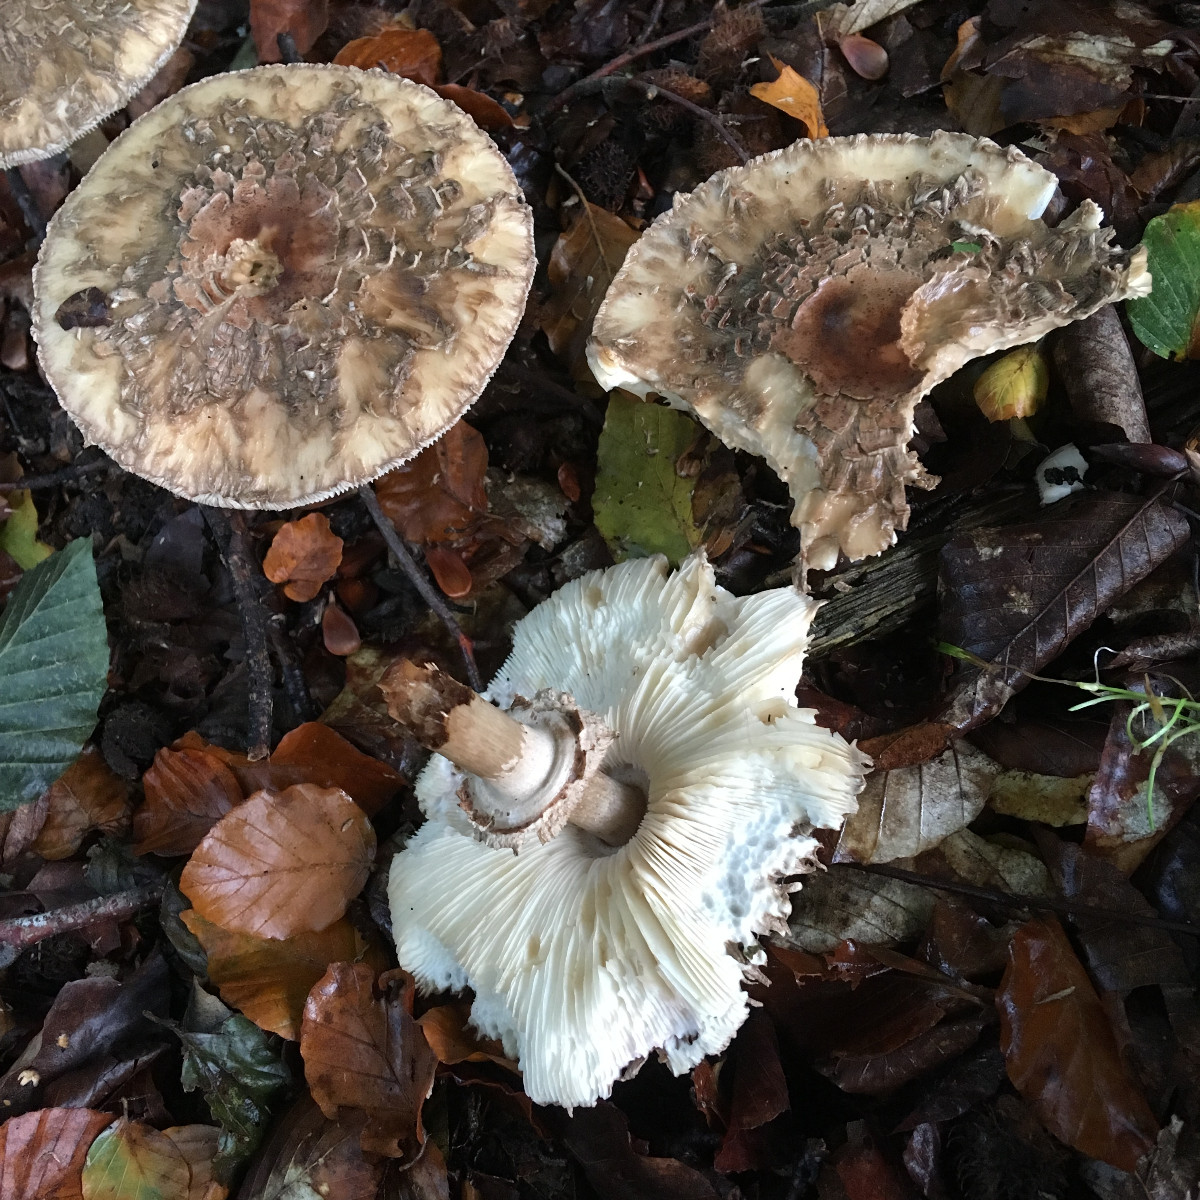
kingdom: Fungi
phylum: Basidiomycota
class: Agaricomycetes
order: Agaricales
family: Agaricaceae
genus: Chlorophyllum
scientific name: Chlorophyllum rhacodes
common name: ægte rabarberhat
